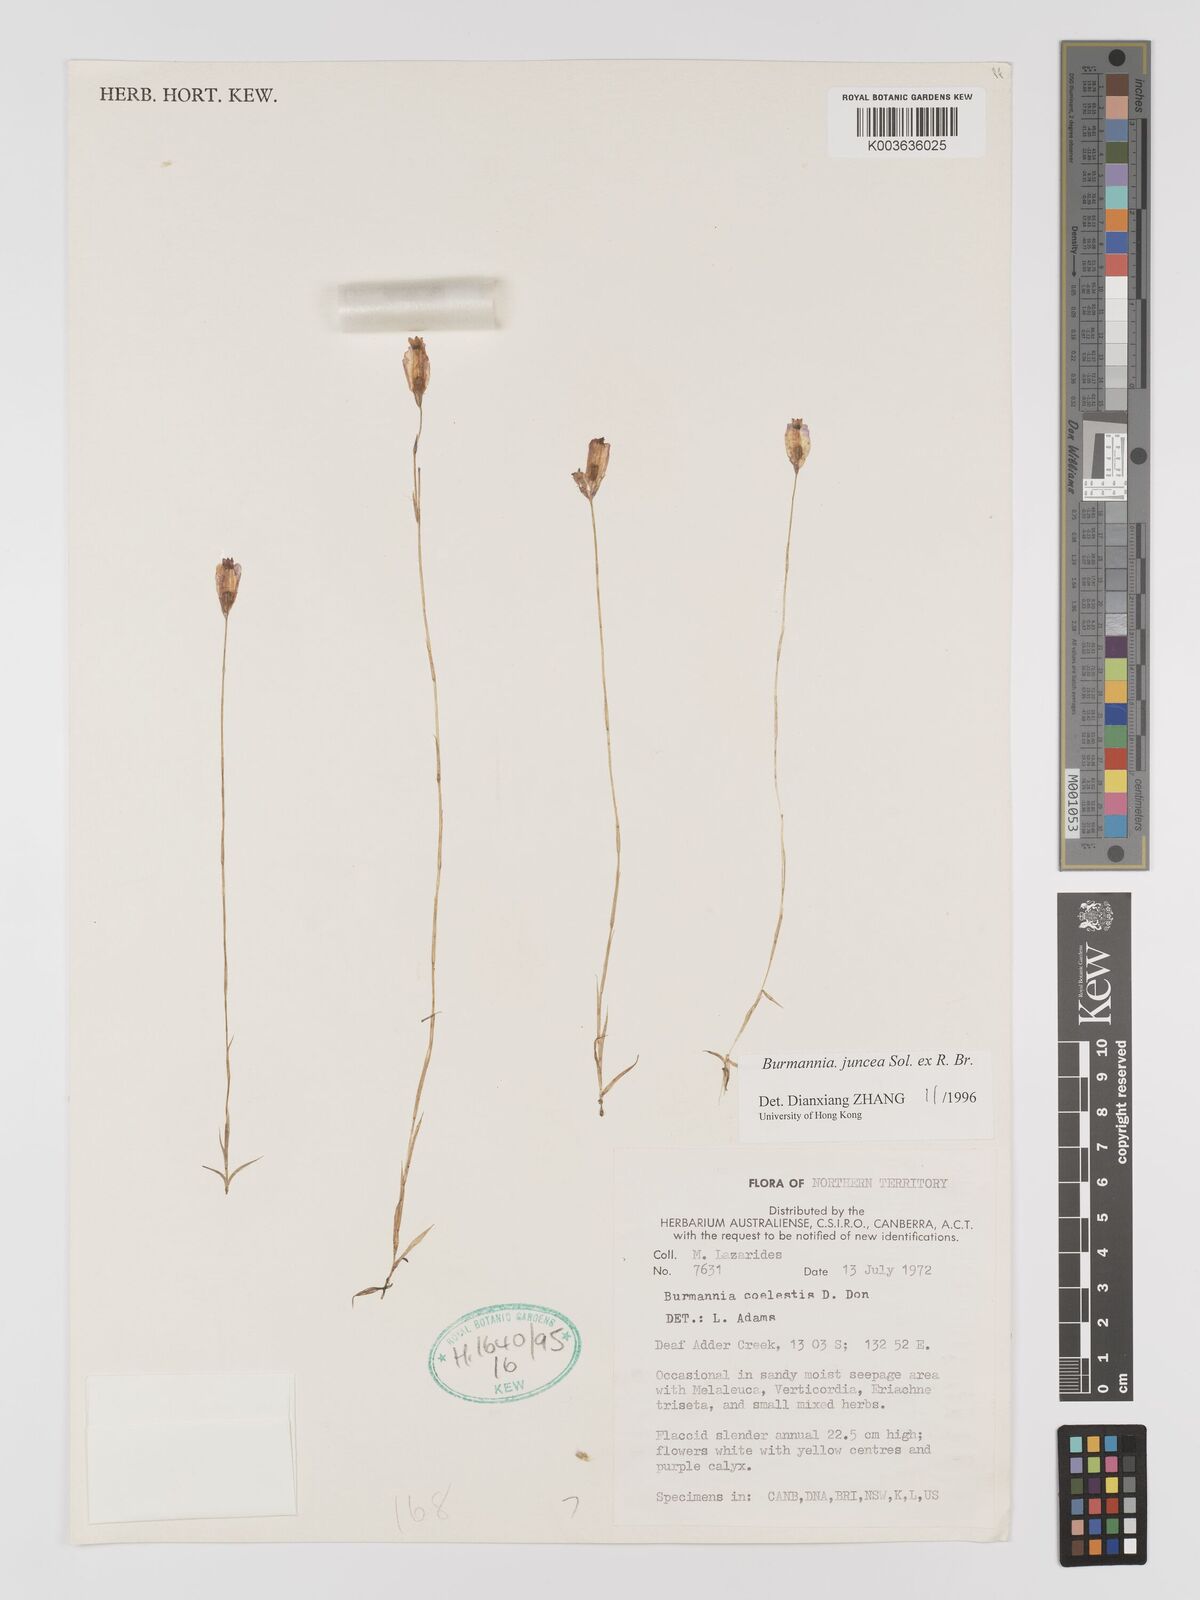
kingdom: Plantae
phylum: Tracheophyta
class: Liliopsida
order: Dioscoreales
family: Burmanniaceae
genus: Burmannia
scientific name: Burmannia juncea
